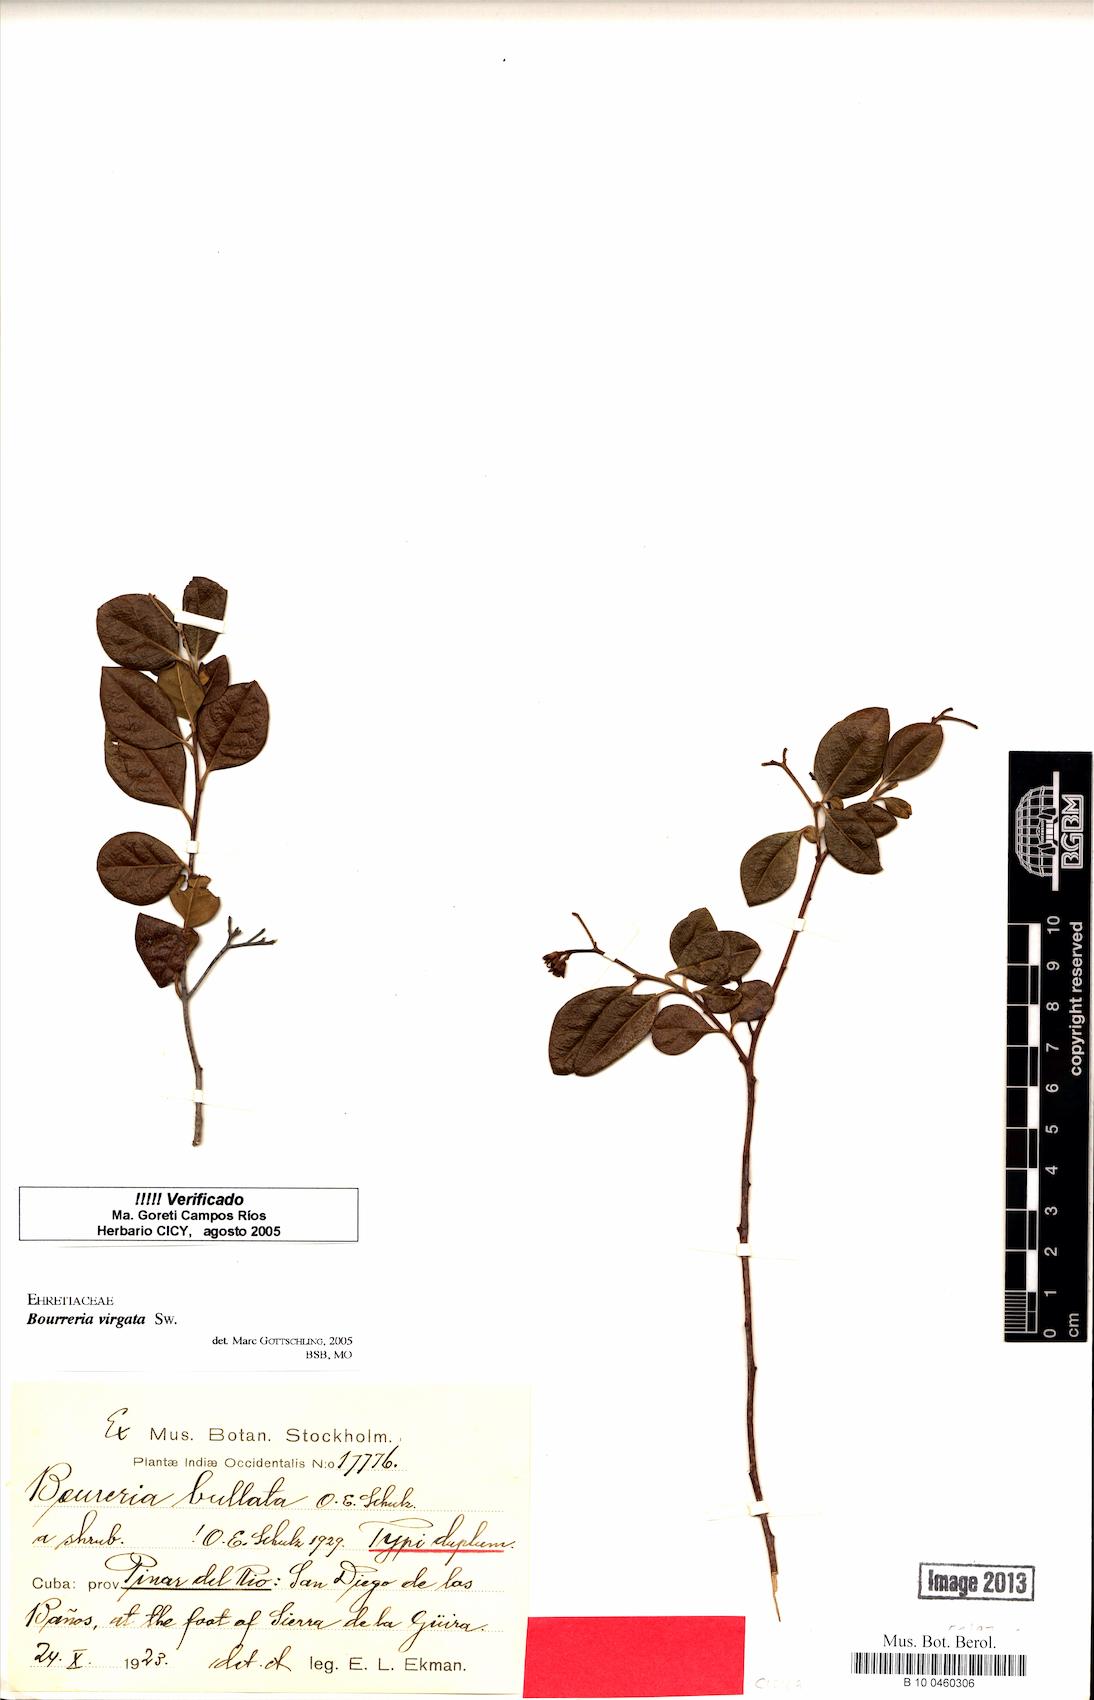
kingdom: Plantae
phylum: Tracheophyta
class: Magnoliopsida
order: Boraginales
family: Ehretiaceae
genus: Bourreria
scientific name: Bourreria virgata
